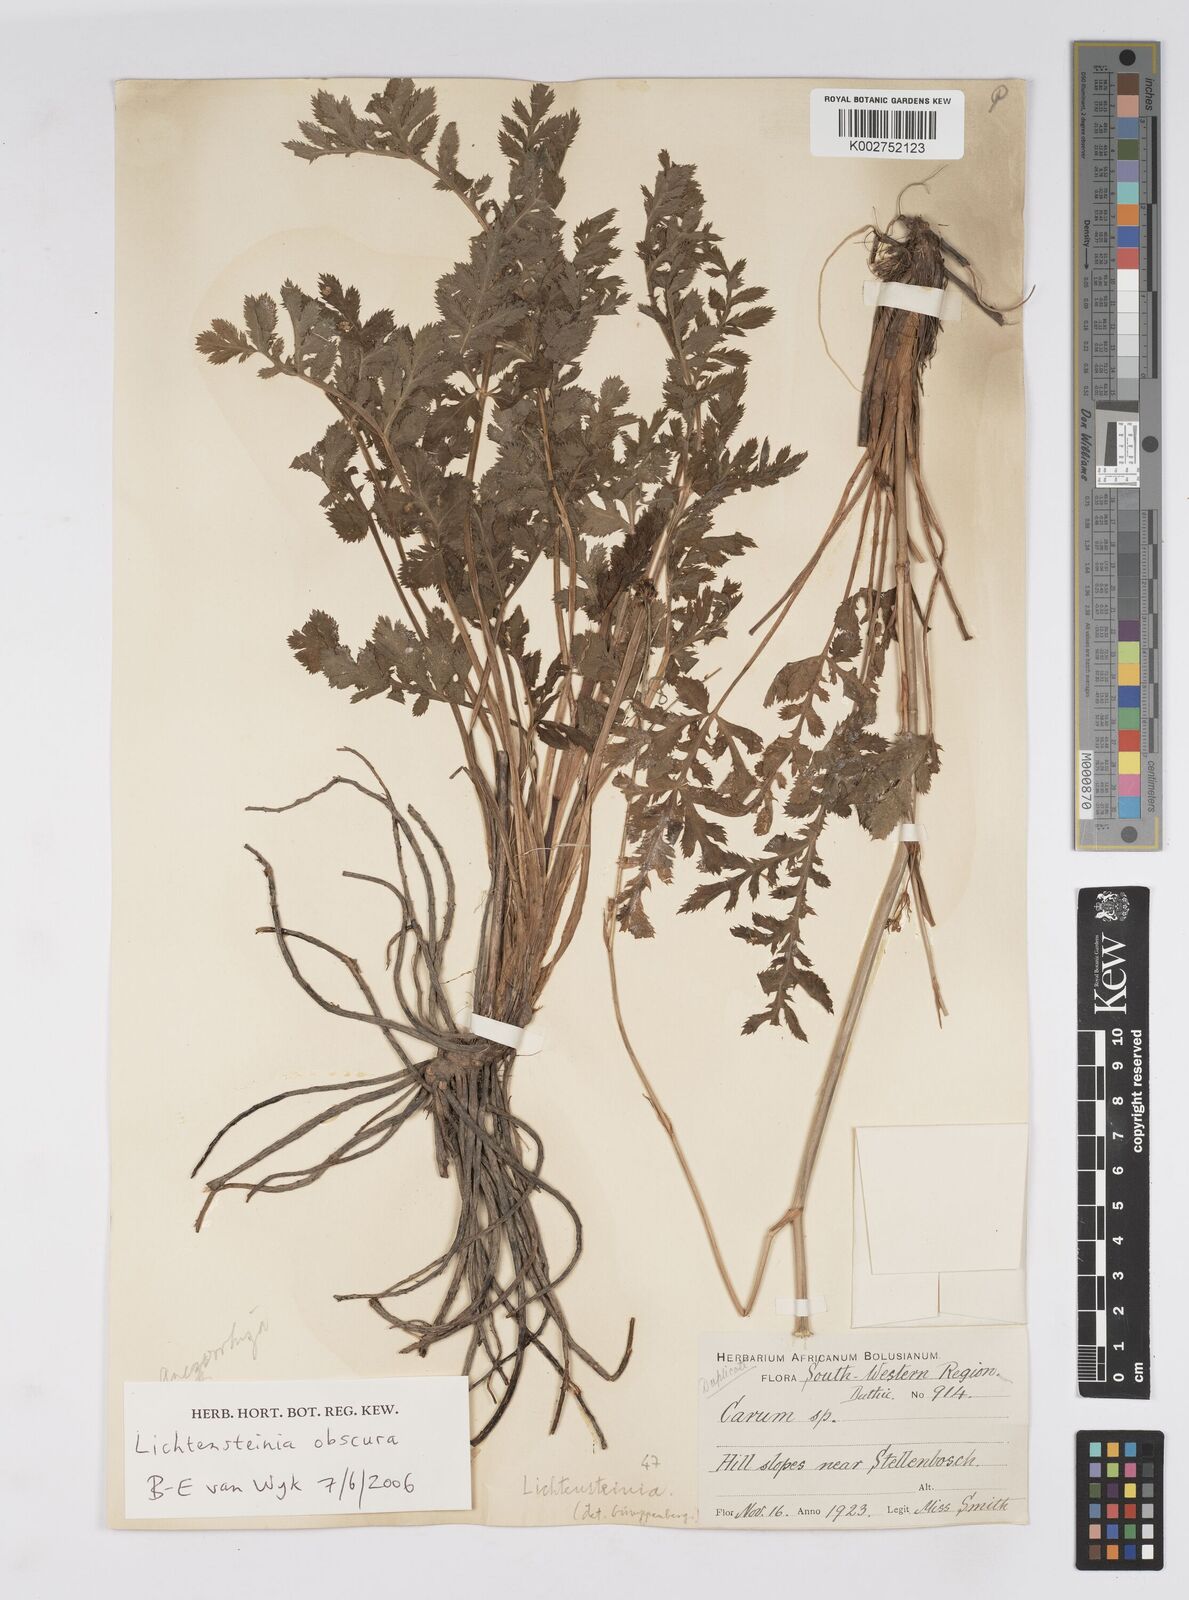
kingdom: Plantae
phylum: Tracheophyta
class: Magnoliopsida
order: Apiales
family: Apiaceae
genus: Lichtensteinia
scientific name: Lichtensteinia obscura
